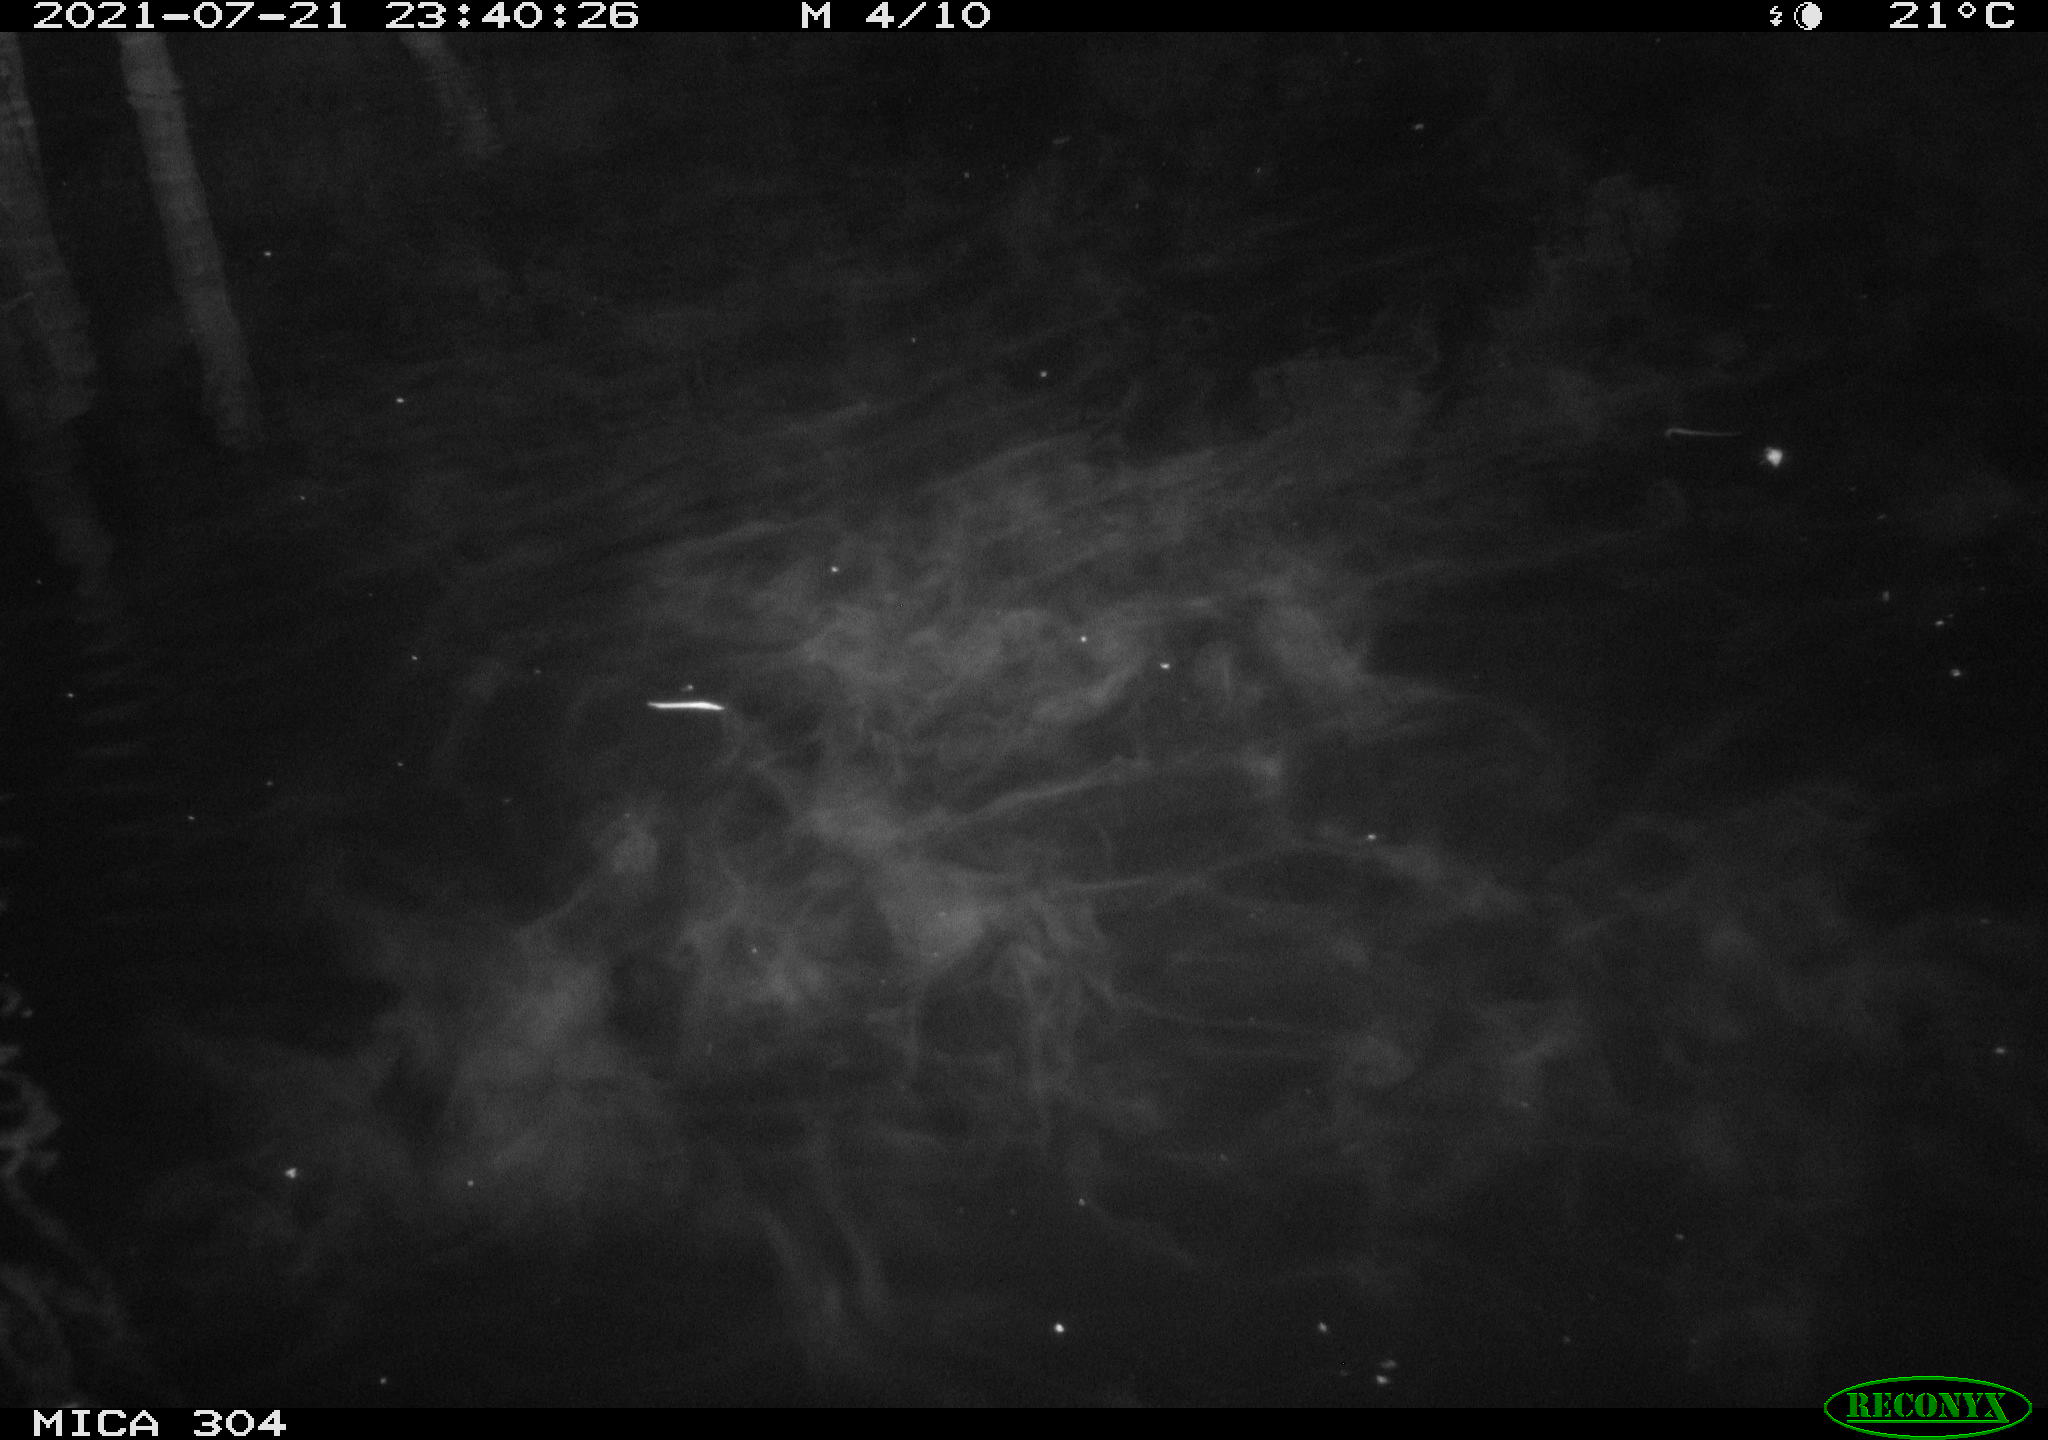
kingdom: Animalia
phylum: Chordata
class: Aves
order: Anseriformes
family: Anatidae
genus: Anas
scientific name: Anas platyrhynchos
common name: Mallard
